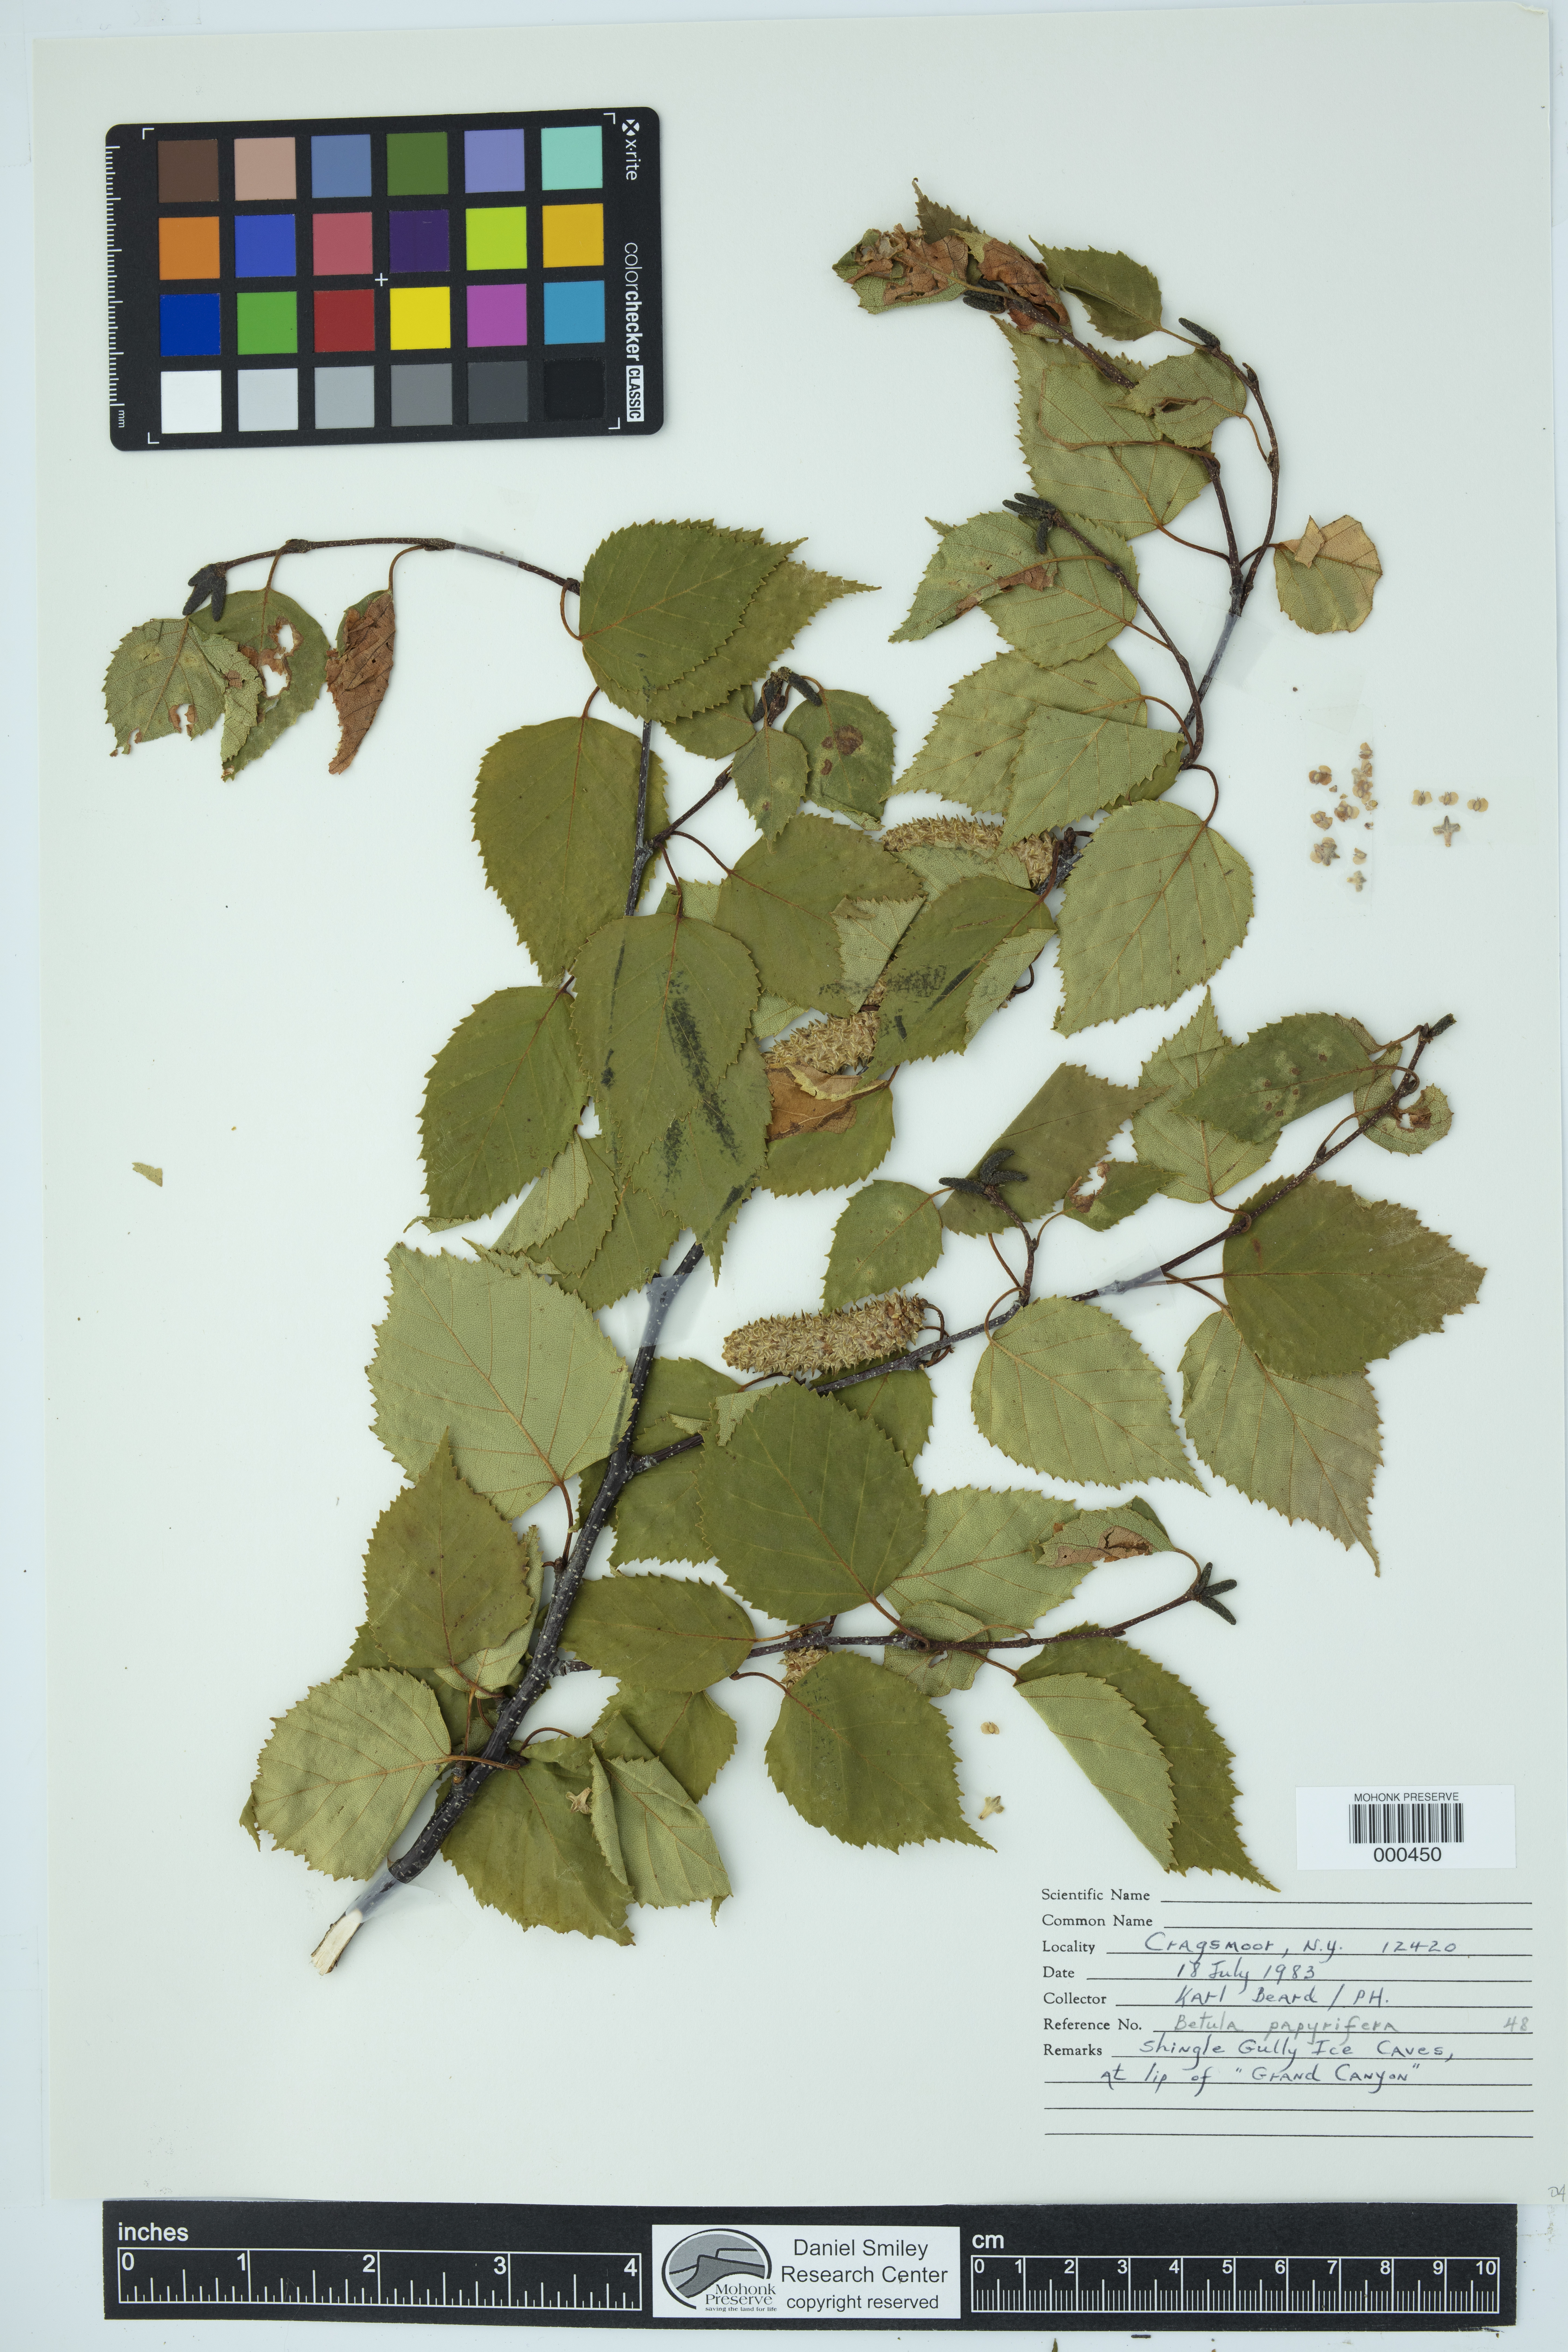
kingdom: Plantae
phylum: Tracheophyta
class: Magnoliopsida
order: Fagales
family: Betulaceae
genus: Betula
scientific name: Betula papyrifera
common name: Paper birch
